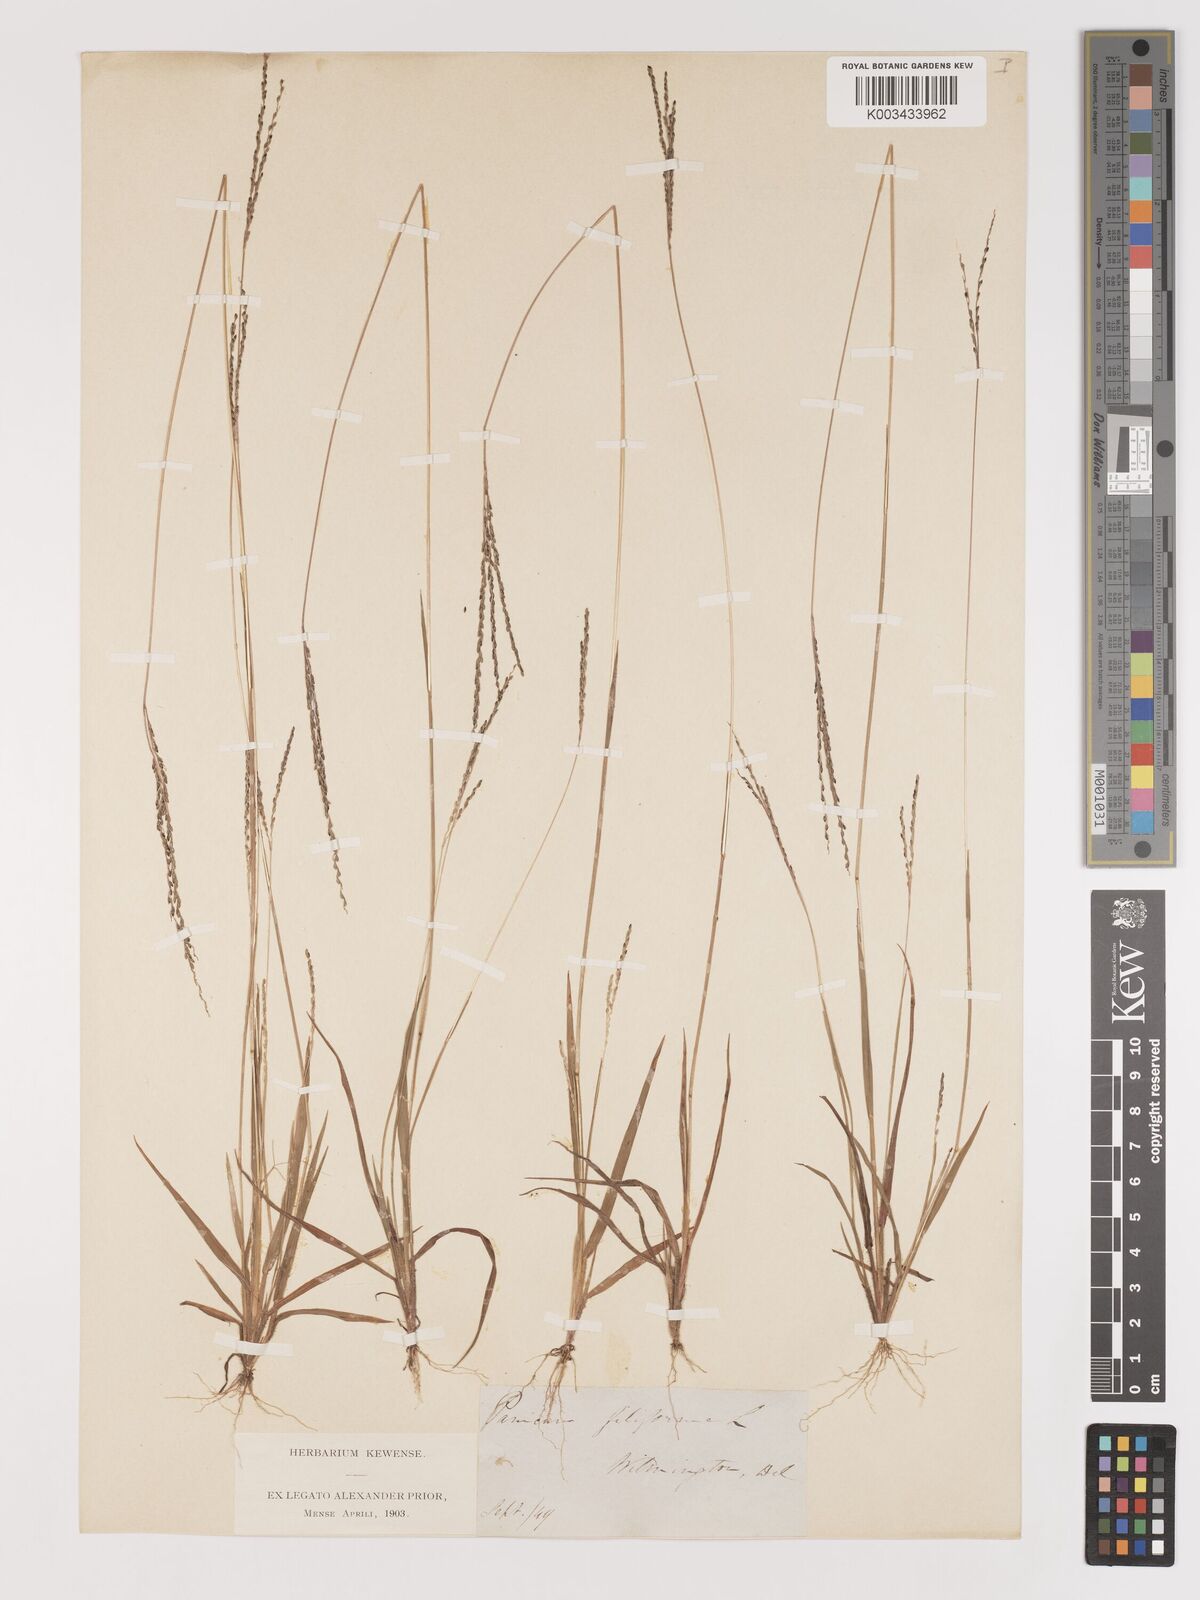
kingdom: Plantae
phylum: Tracheophyta
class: Liliopsida
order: Poales
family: Poaceae
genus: Digitaria
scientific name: Digitaria filiformis
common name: Slender crabgrass
